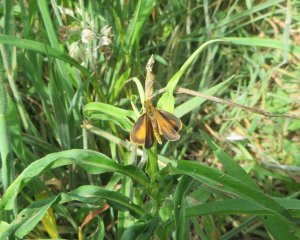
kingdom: Animalia
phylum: Arthropoda
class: Insecta
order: Lepidoptera
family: Hesperiidae
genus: Ancyloxypha
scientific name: Ancyloxypha numitor
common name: Least Skipper
